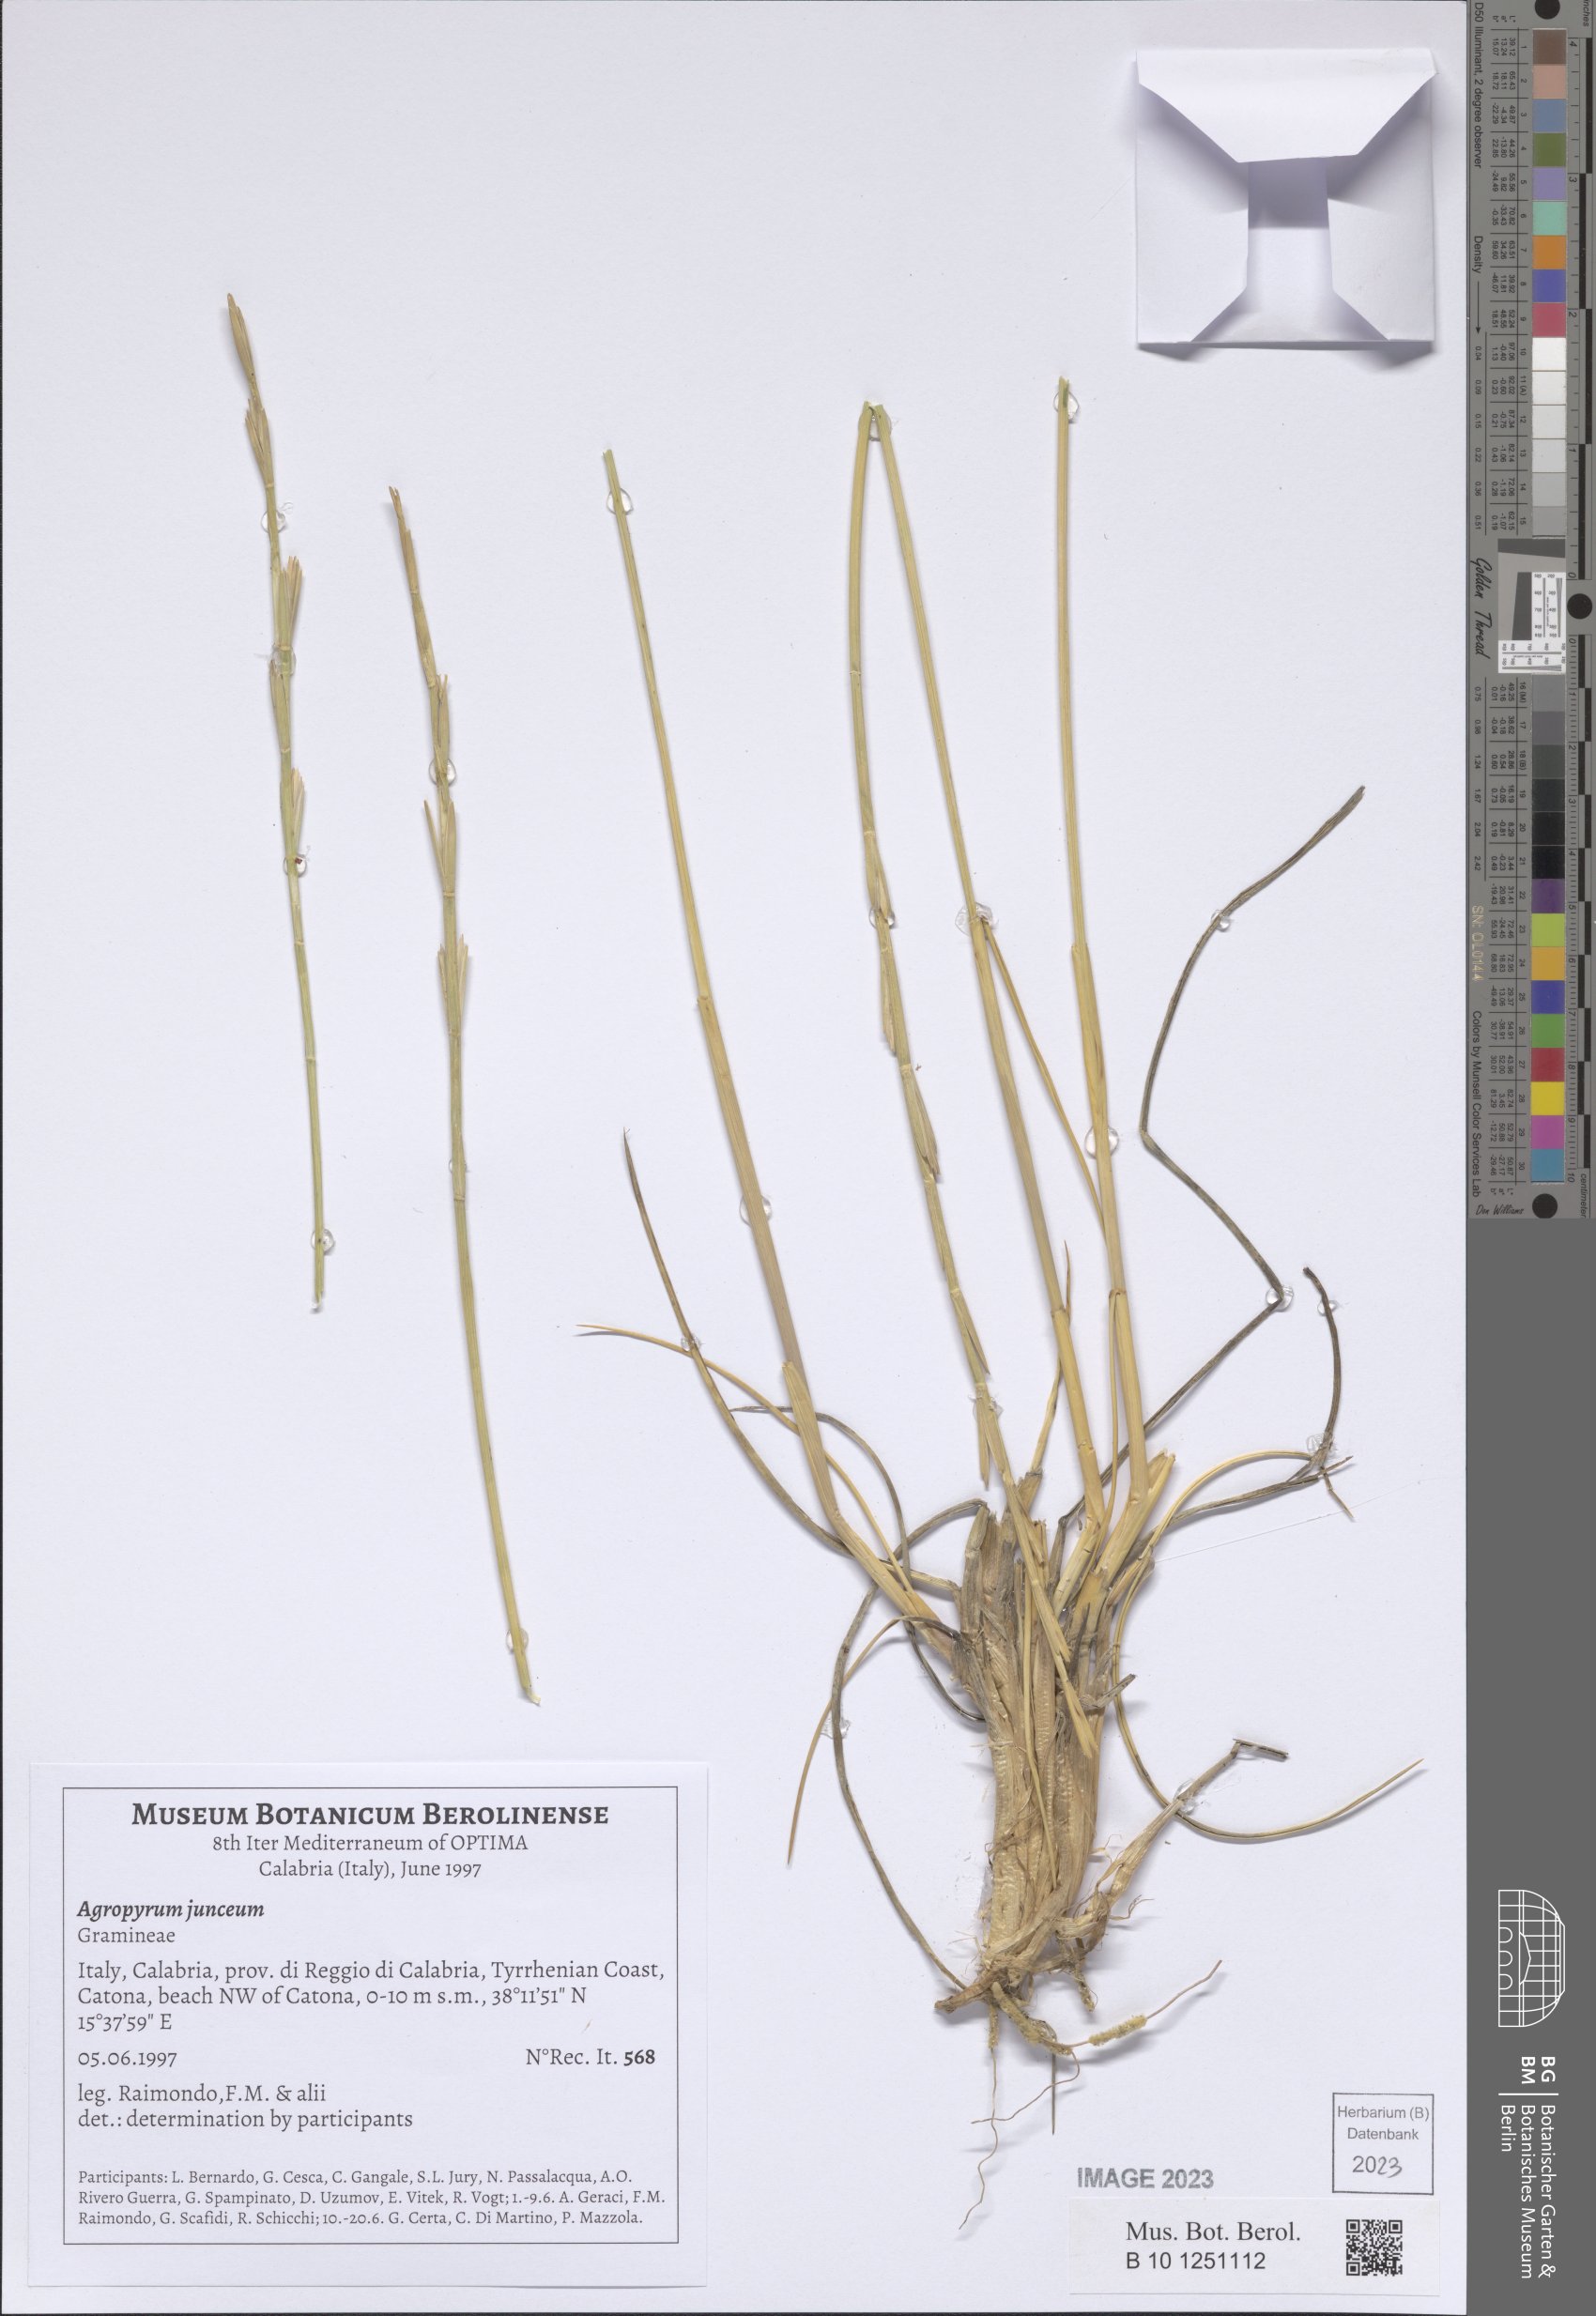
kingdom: Plantae
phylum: Tracheophyta
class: Liliopsida
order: Poales
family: Poaceae
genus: Thinopyrum
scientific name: Thinopyrum junceum
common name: Russian wheatgrass
